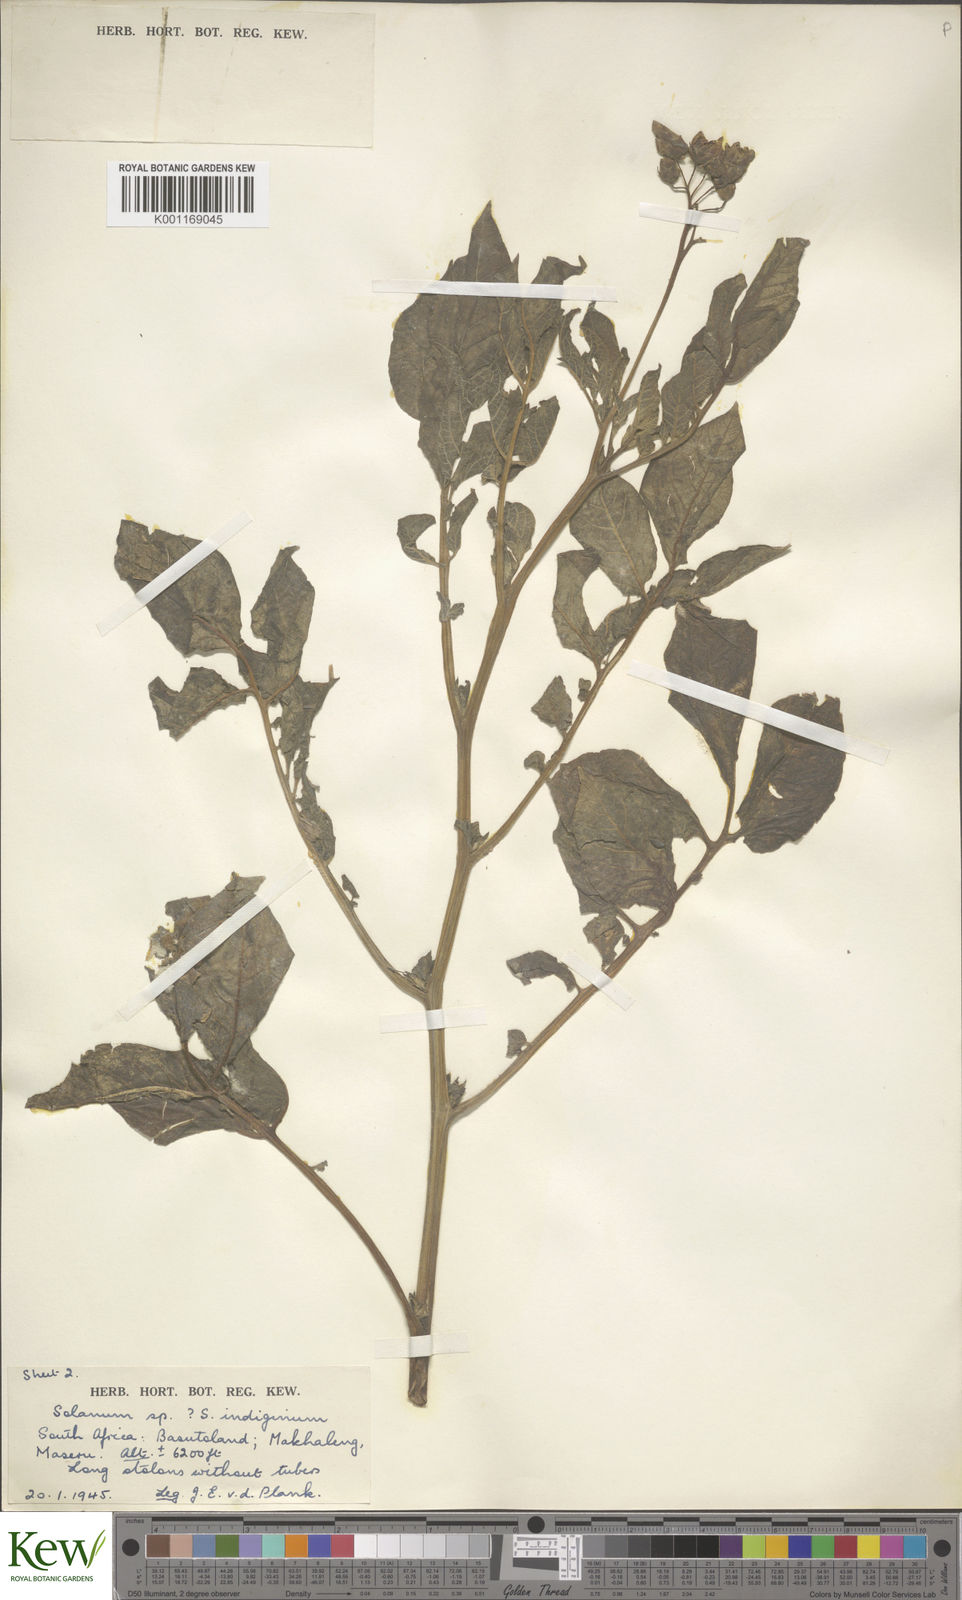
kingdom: Plantae
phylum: Tracheophyta
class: Magnoliopsida
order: Solanales
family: Solanaceae
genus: Solanum
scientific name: Solanum
